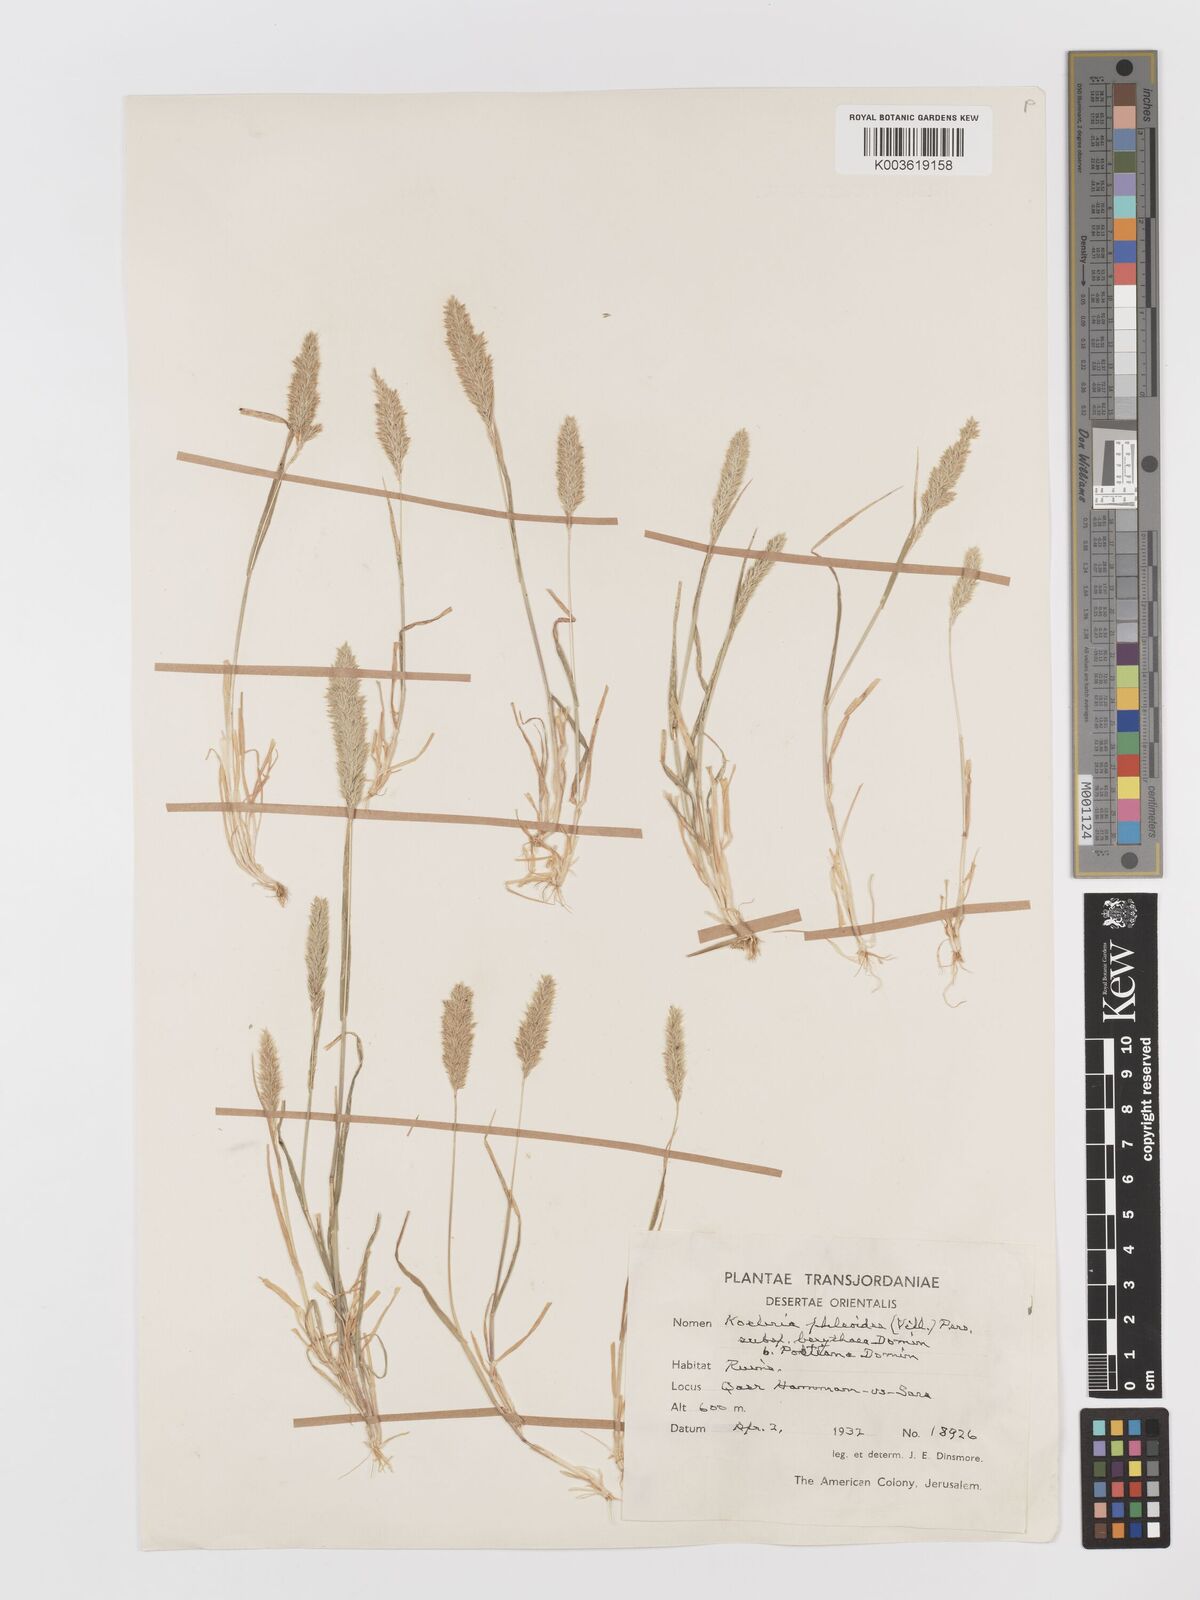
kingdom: Plantae
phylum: Tracheophyta
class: Liliopsida
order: Poales
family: Poaceae
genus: Rostraria
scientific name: Rostraria
